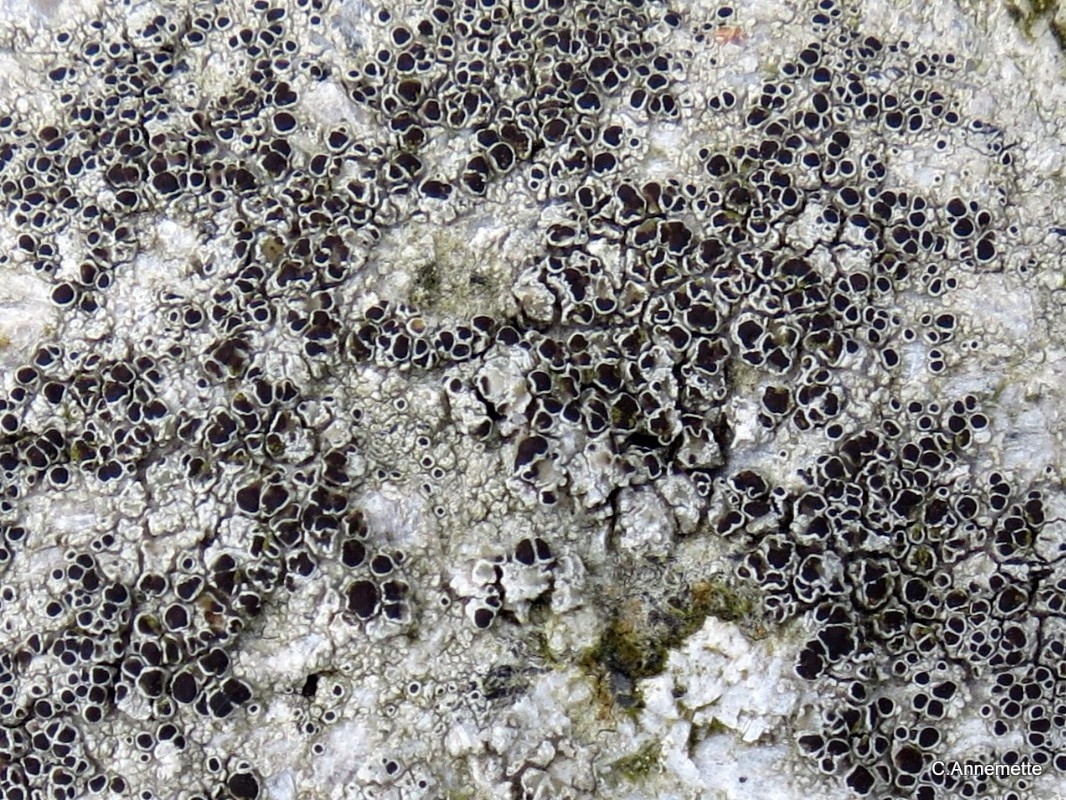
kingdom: Fungi
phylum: Ascomycota
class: Lecanoromycetes
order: Lecanorales
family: Tephromelataceae
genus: Tephromela
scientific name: Tephromela atra
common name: sortfrugtet kantskivelav
